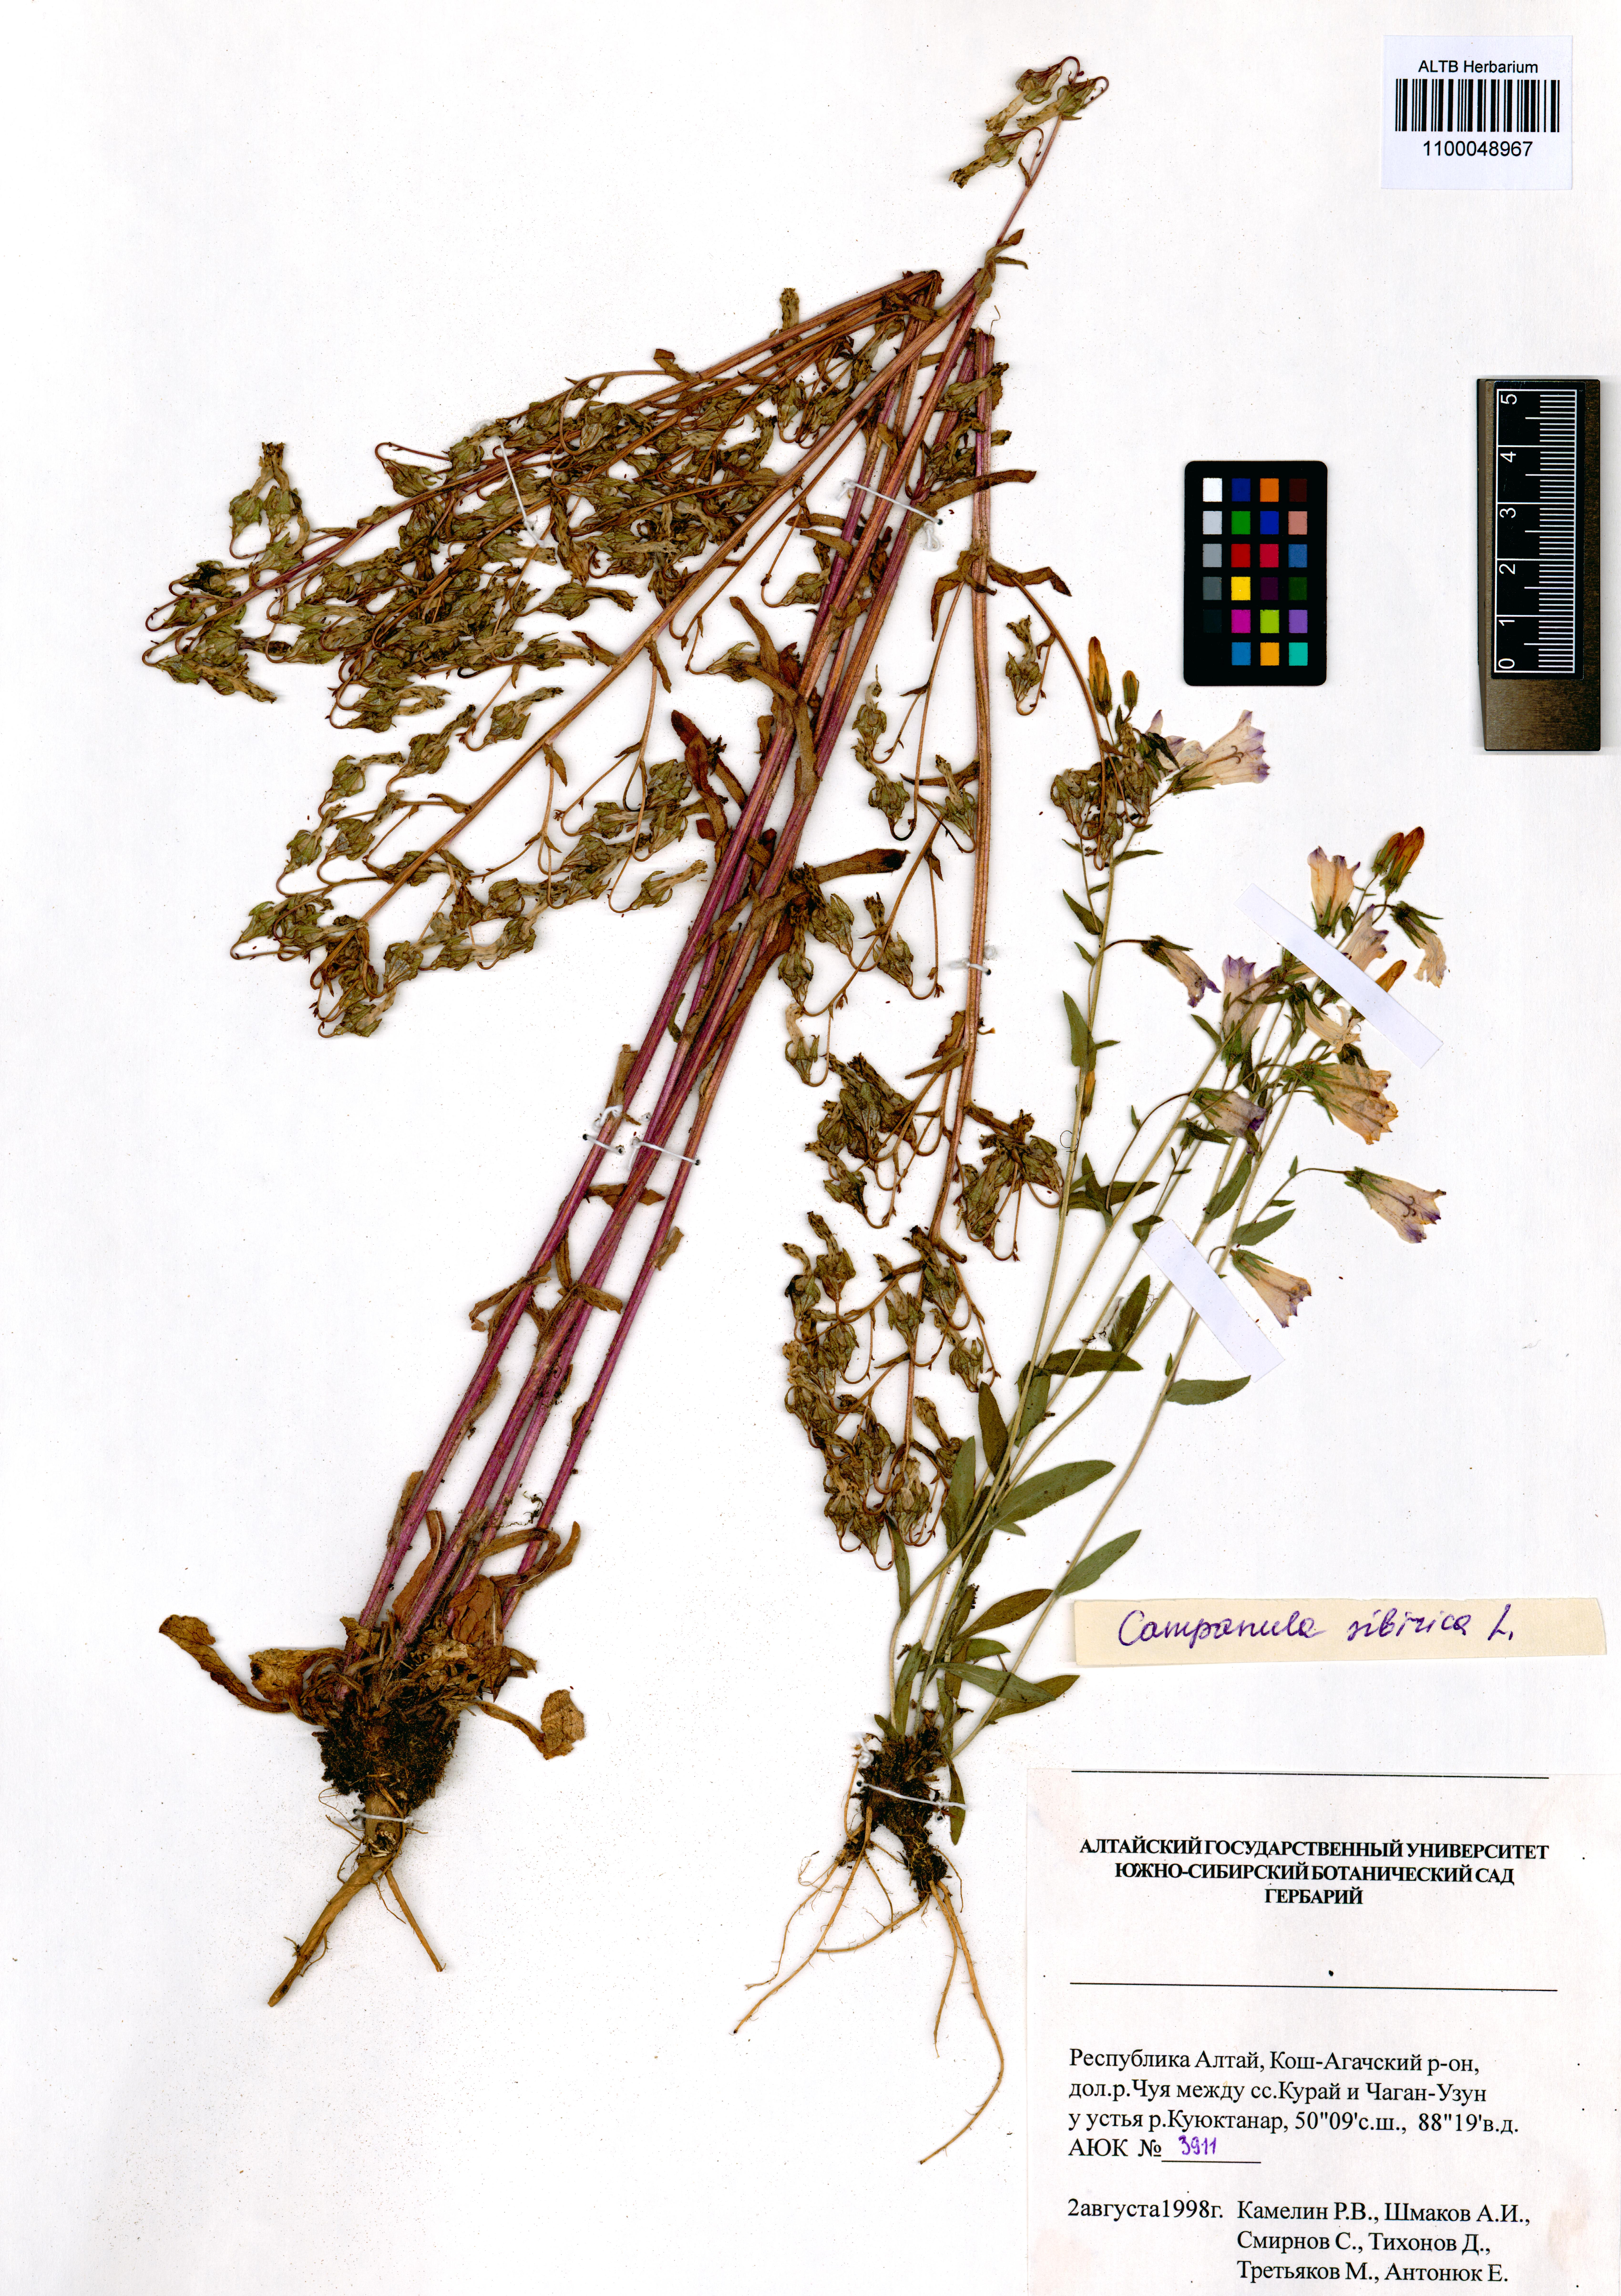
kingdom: Plantae
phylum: Tracheophyta
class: Magnoliopsida
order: Asterales
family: Campanulaceae
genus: Campanula
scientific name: Campanula sibirica
